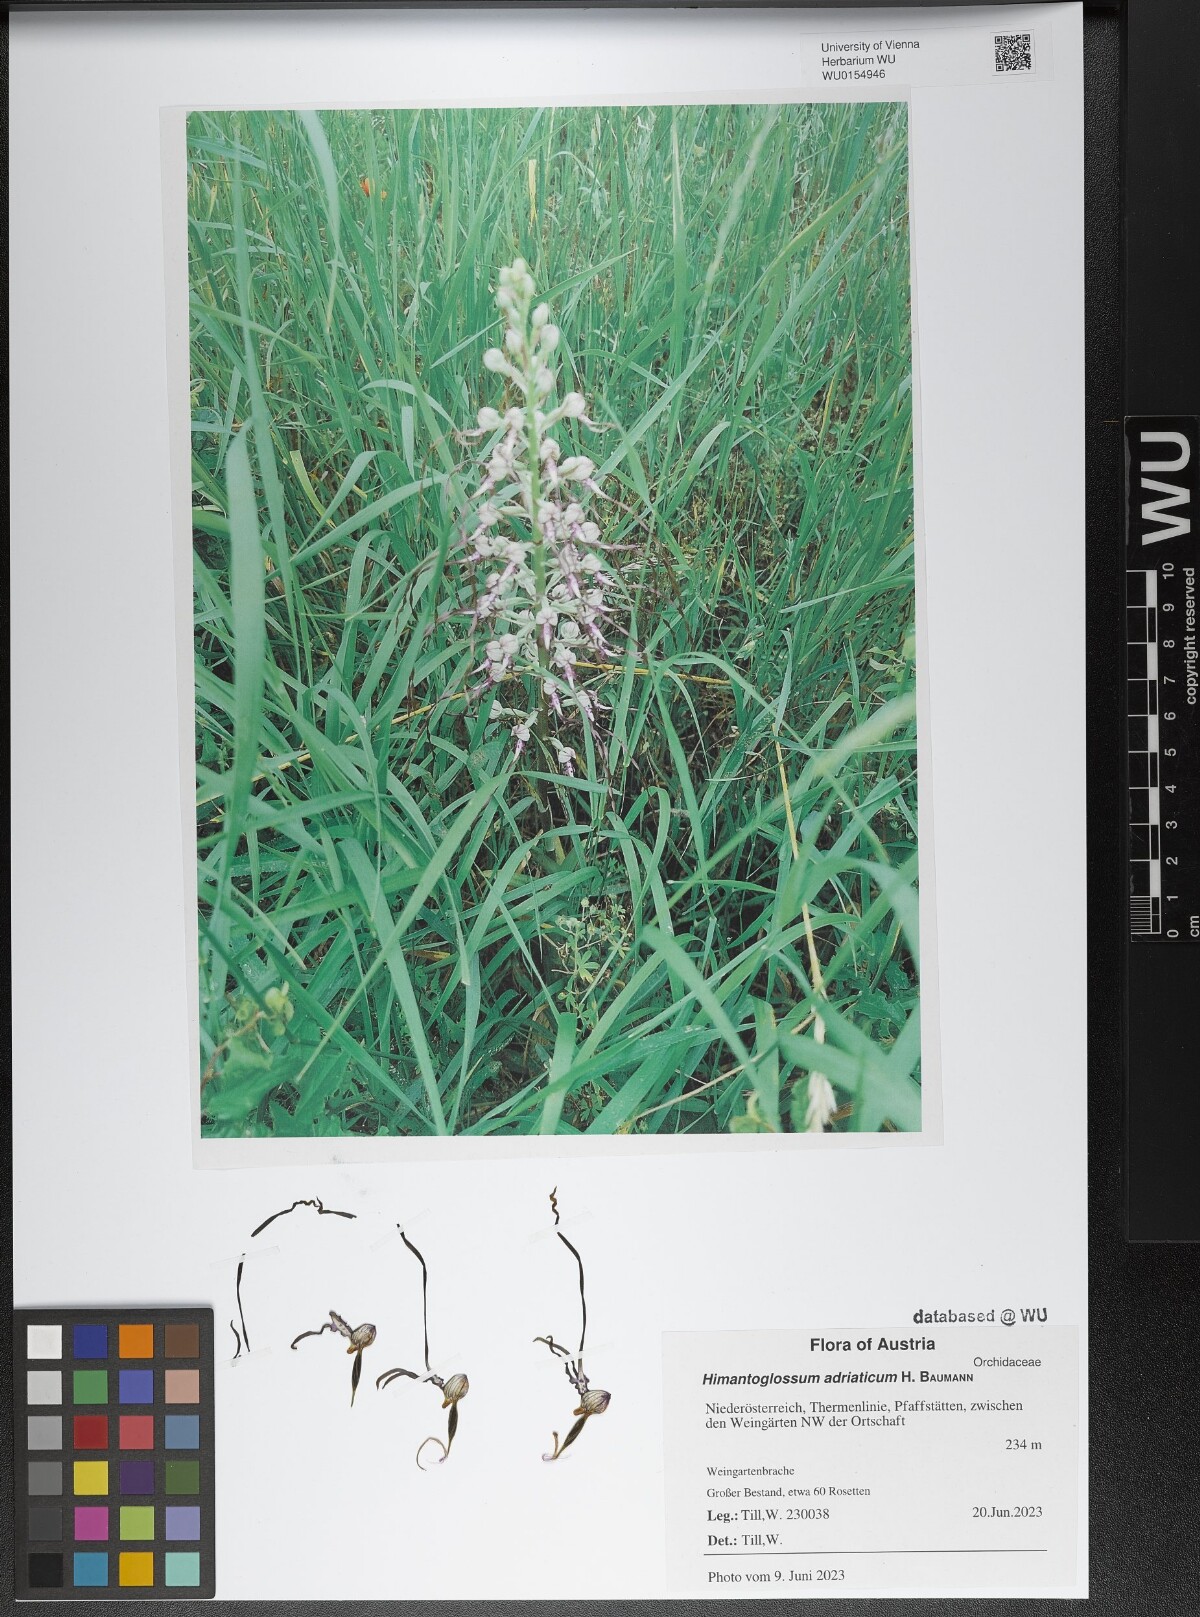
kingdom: Plantae
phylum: Tracheophyta
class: Liliopsida
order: Asparagales
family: Orchidaceae
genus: Himantoglossum
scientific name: Himantoglossum adriaticum
